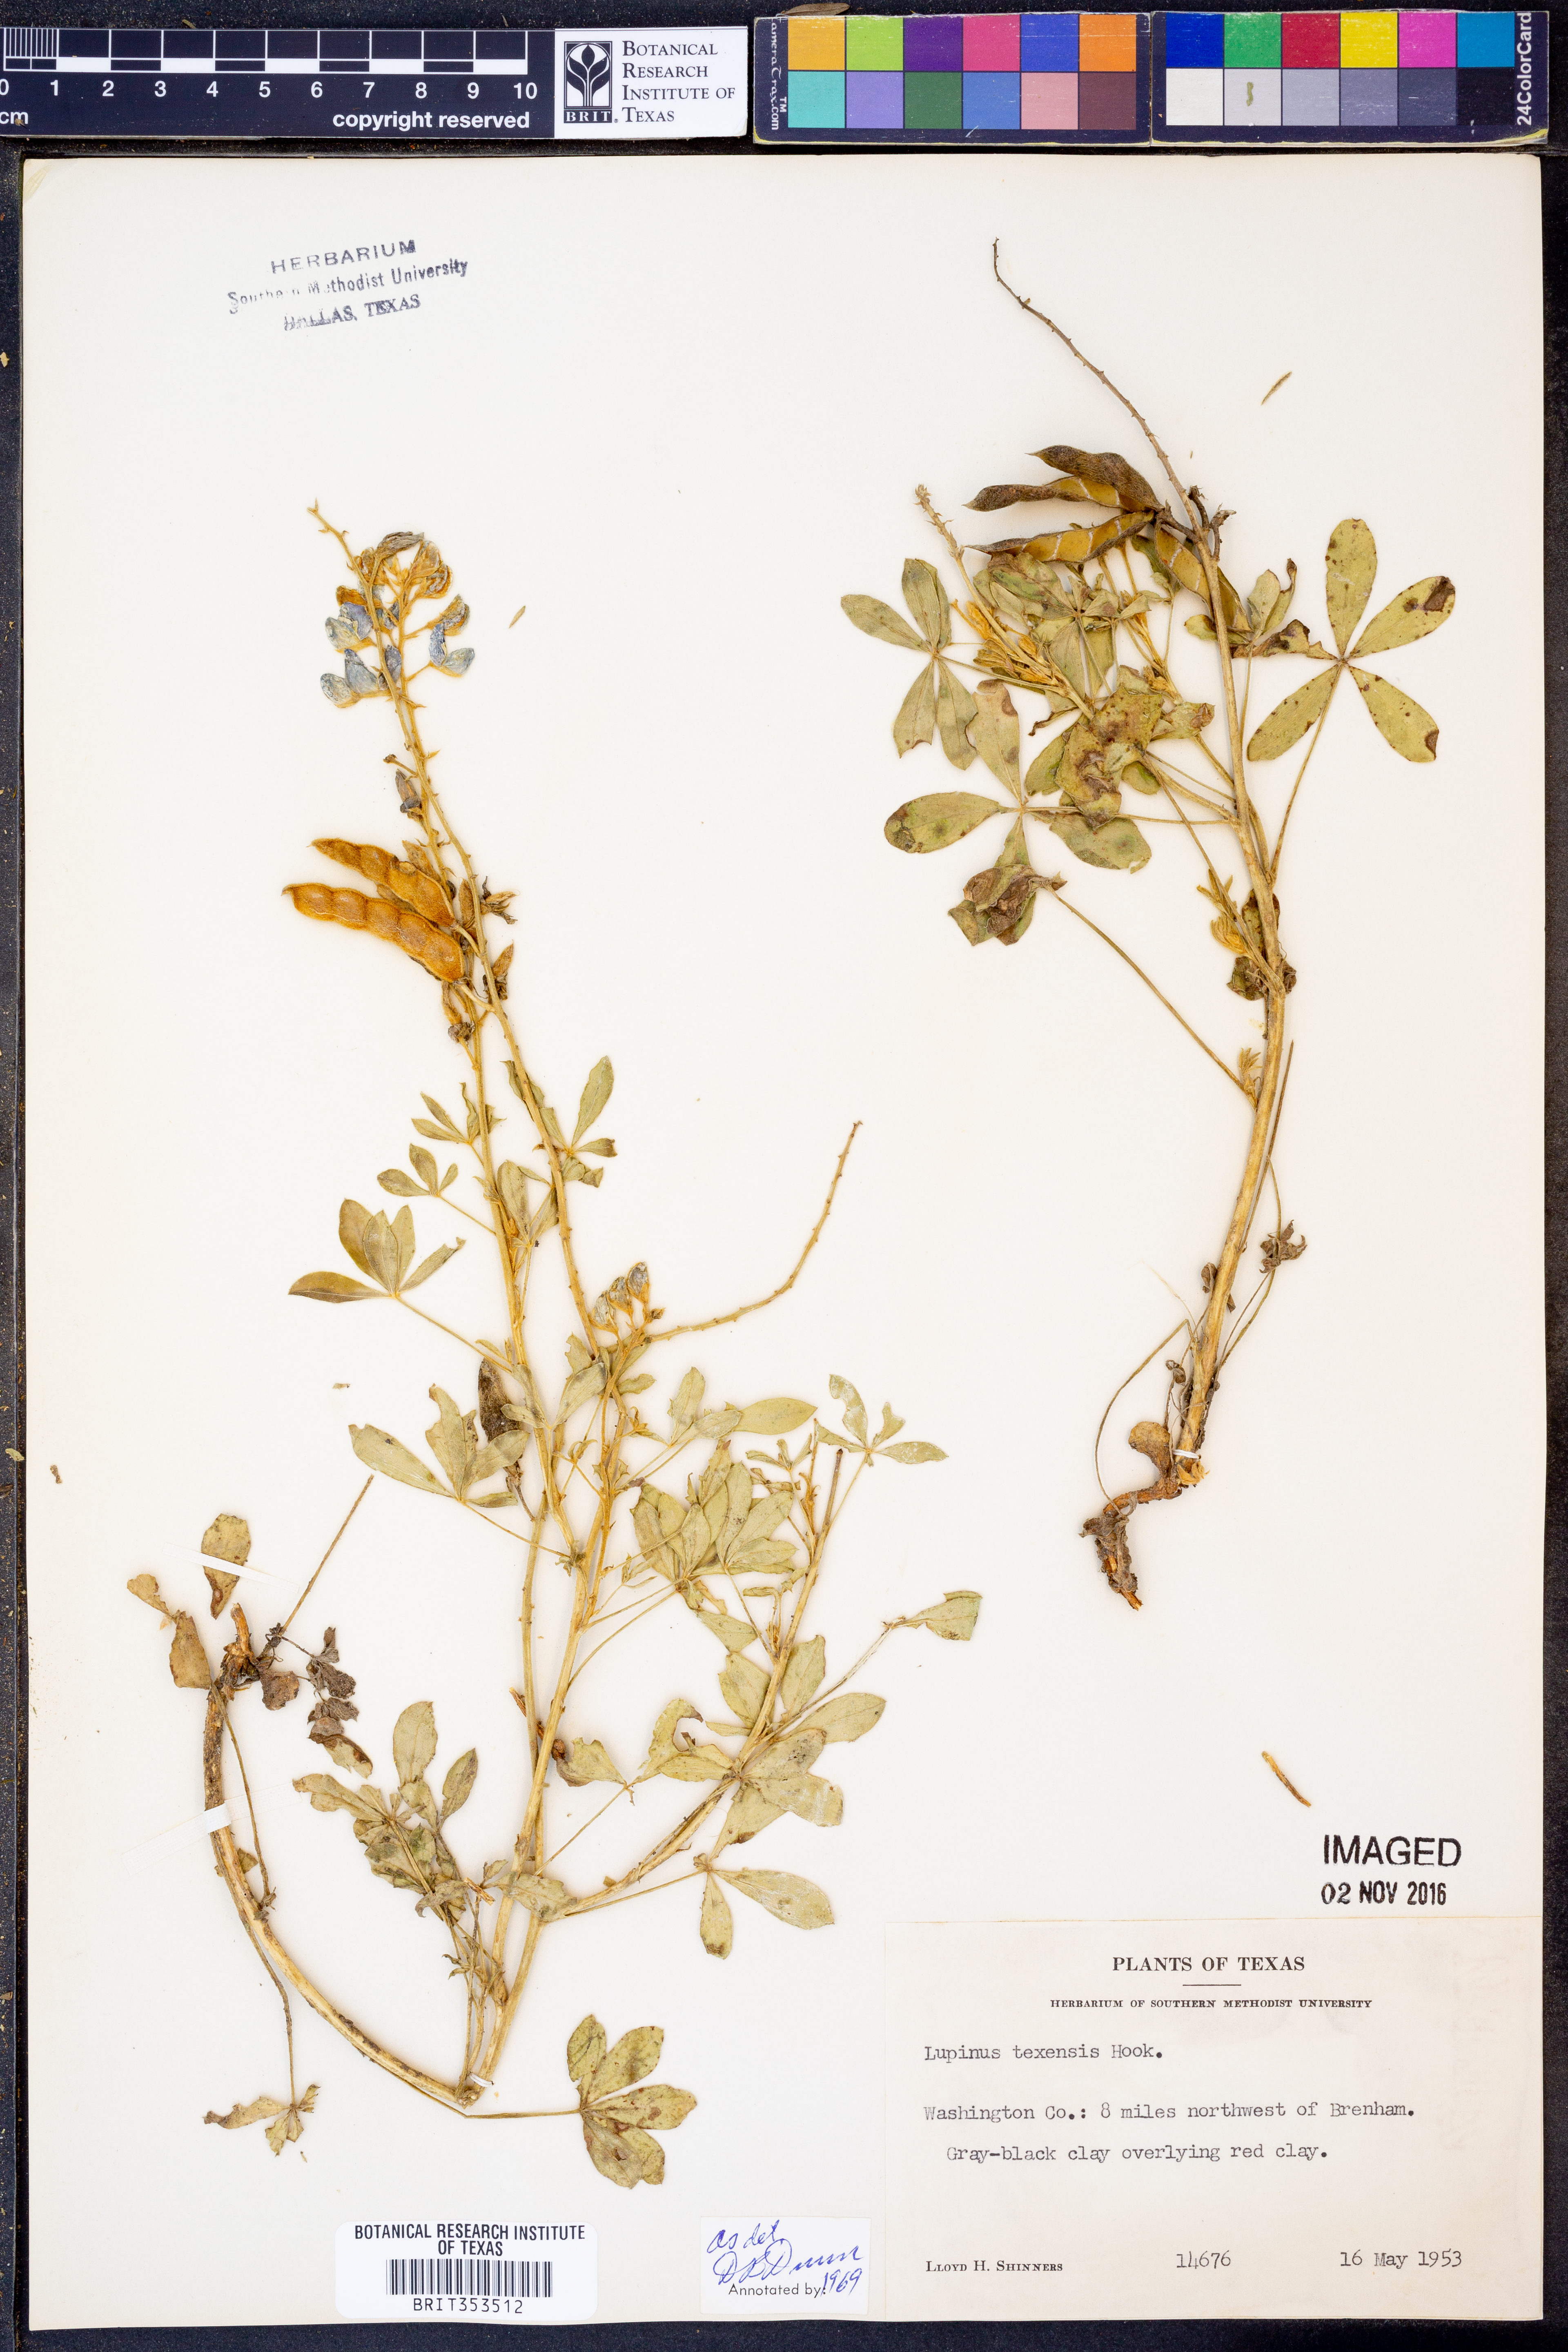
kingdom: Plantae
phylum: Tracheophyta
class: Magnoliopsida
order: Fabales
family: Fabaceae
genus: Lupinus
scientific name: Lupinus texensis
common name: Texas bluebonnet
